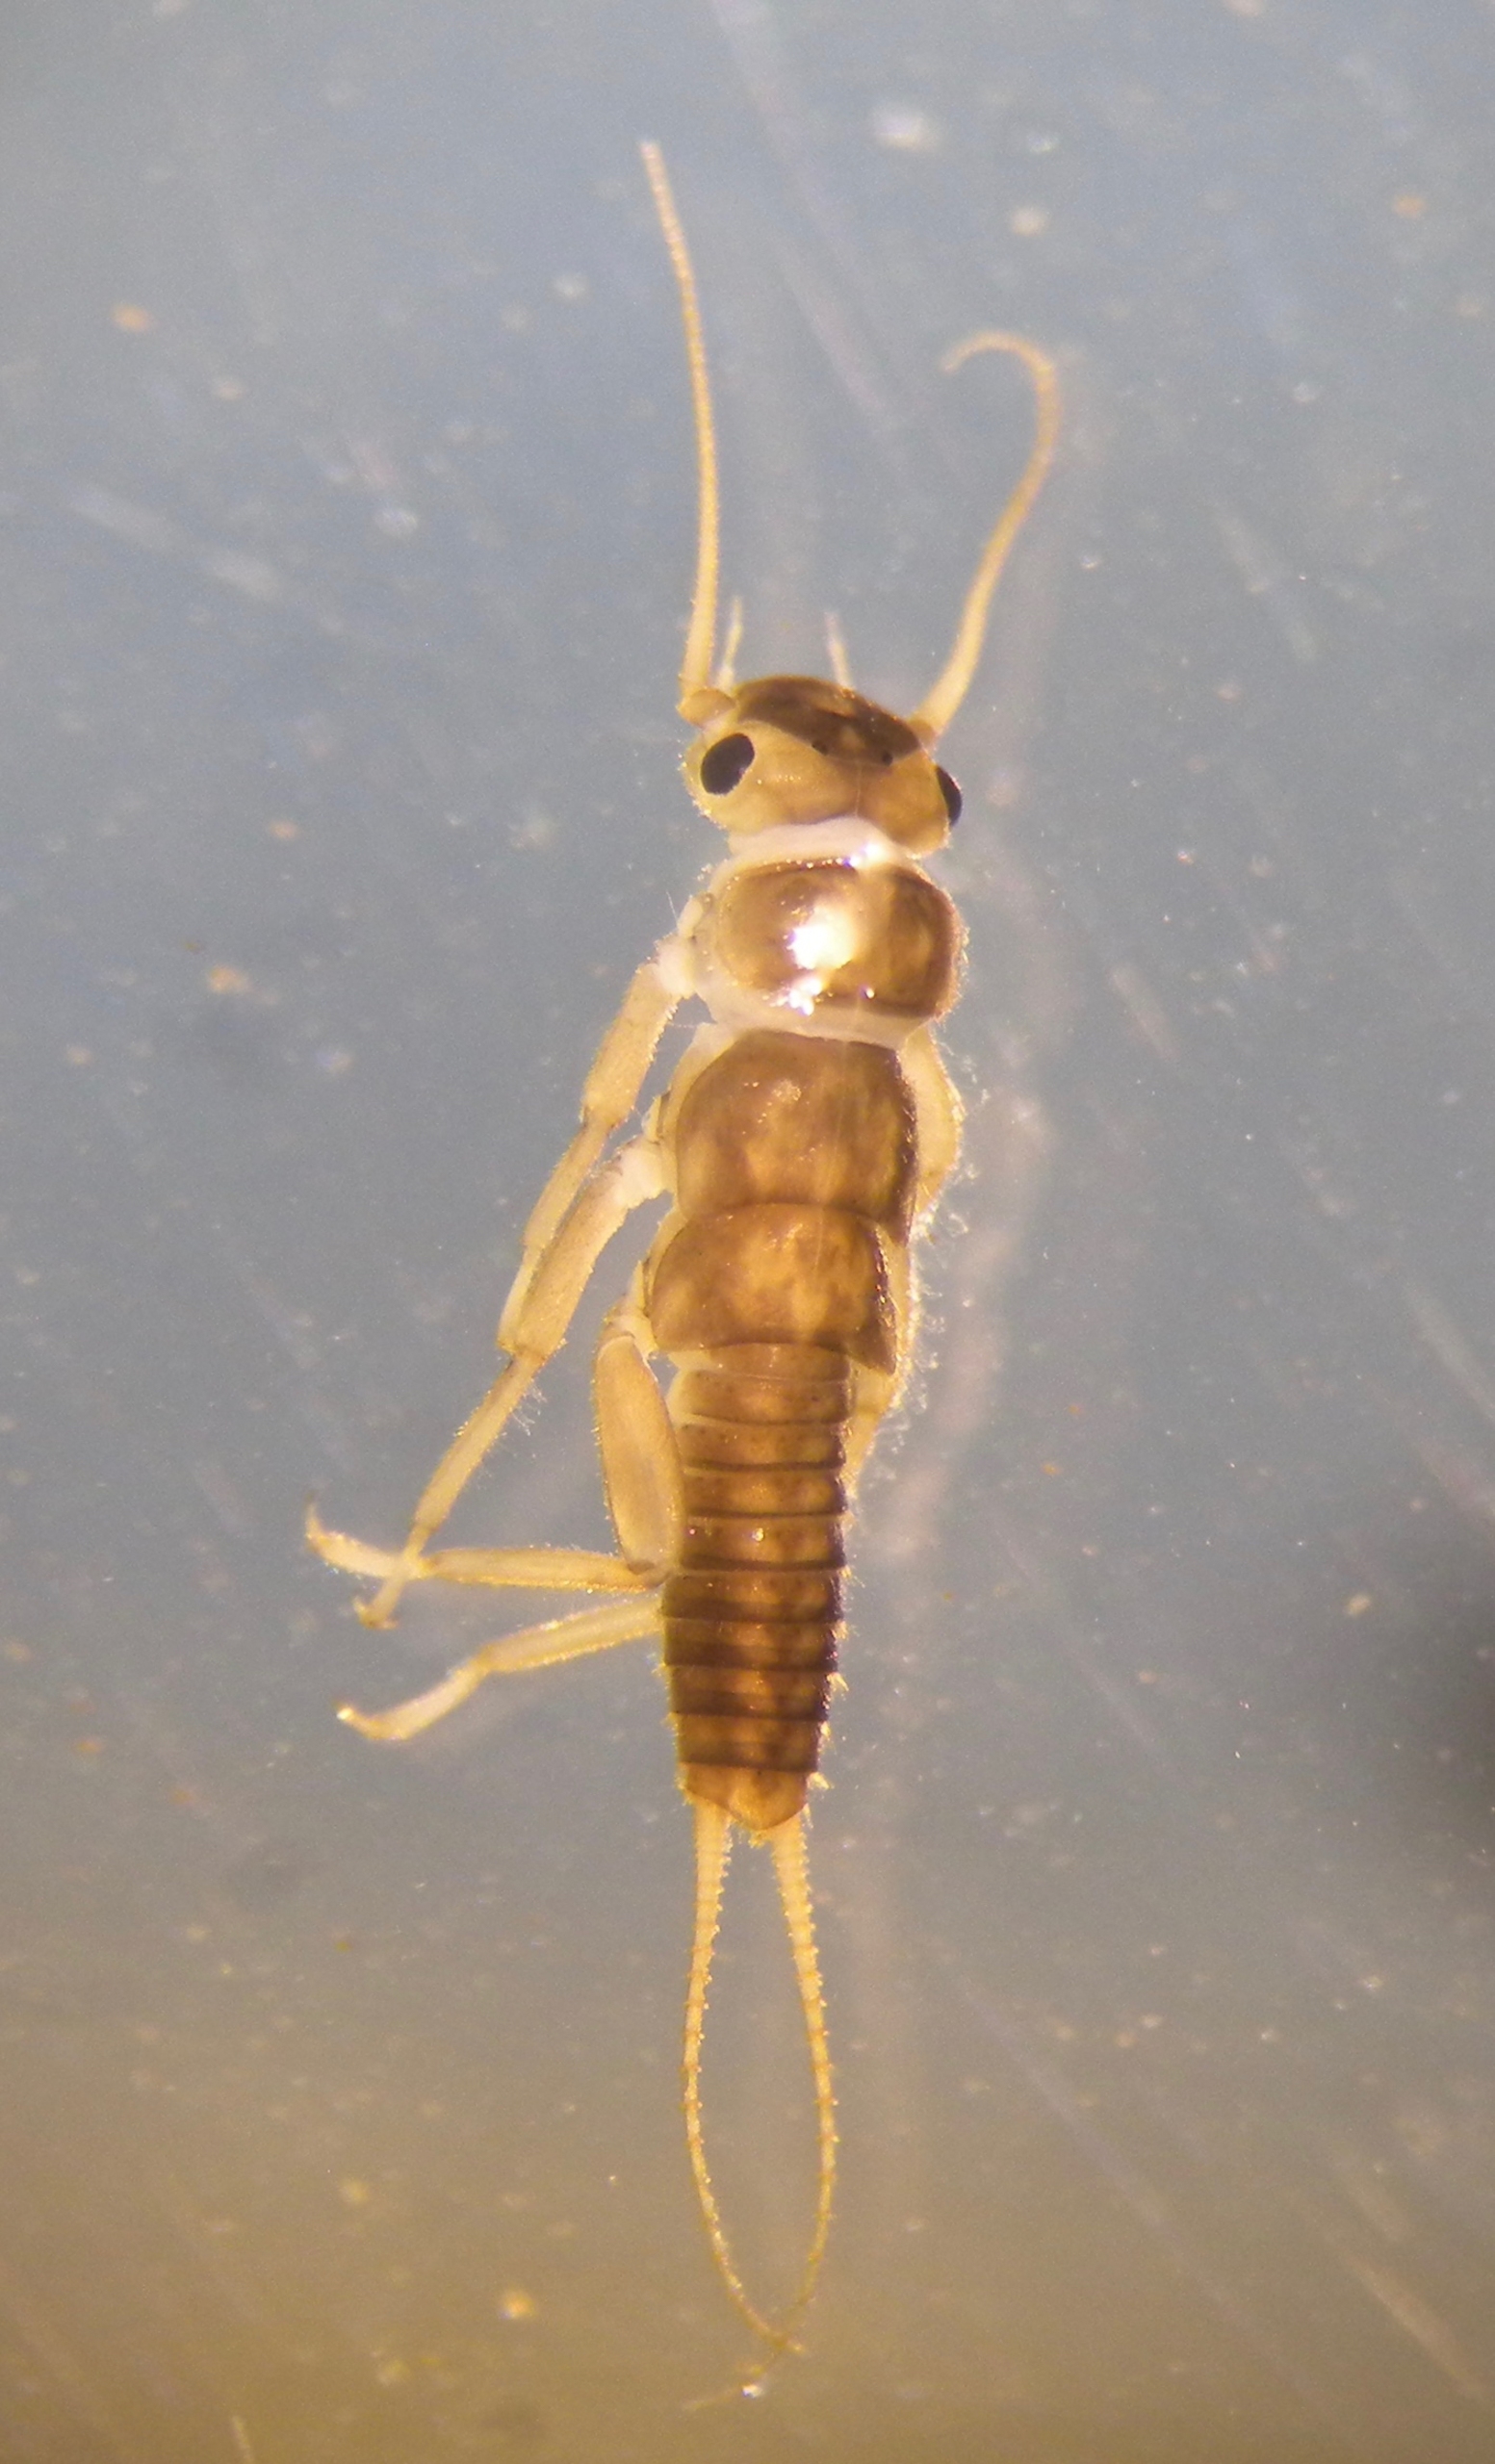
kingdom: Animalia
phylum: Arthropoda
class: Insecta
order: Plecoptera
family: Perlodidae
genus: Isoperla
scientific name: Isoperla grammatica
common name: Gul slørvinge
